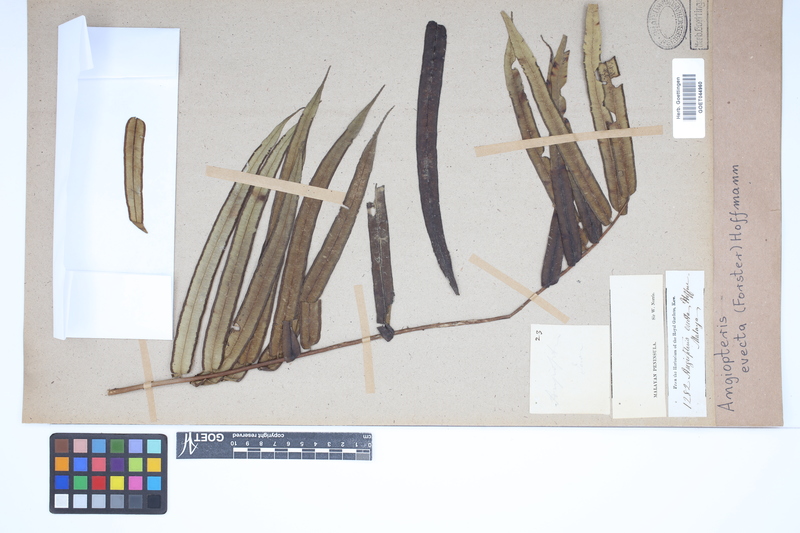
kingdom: Plantae
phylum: Tracheophyta
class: Polypodiopsida
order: Marattiales
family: Marattiaceae
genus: Angiopteris
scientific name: Angiopteris evecta
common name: Mule's-foot fern
